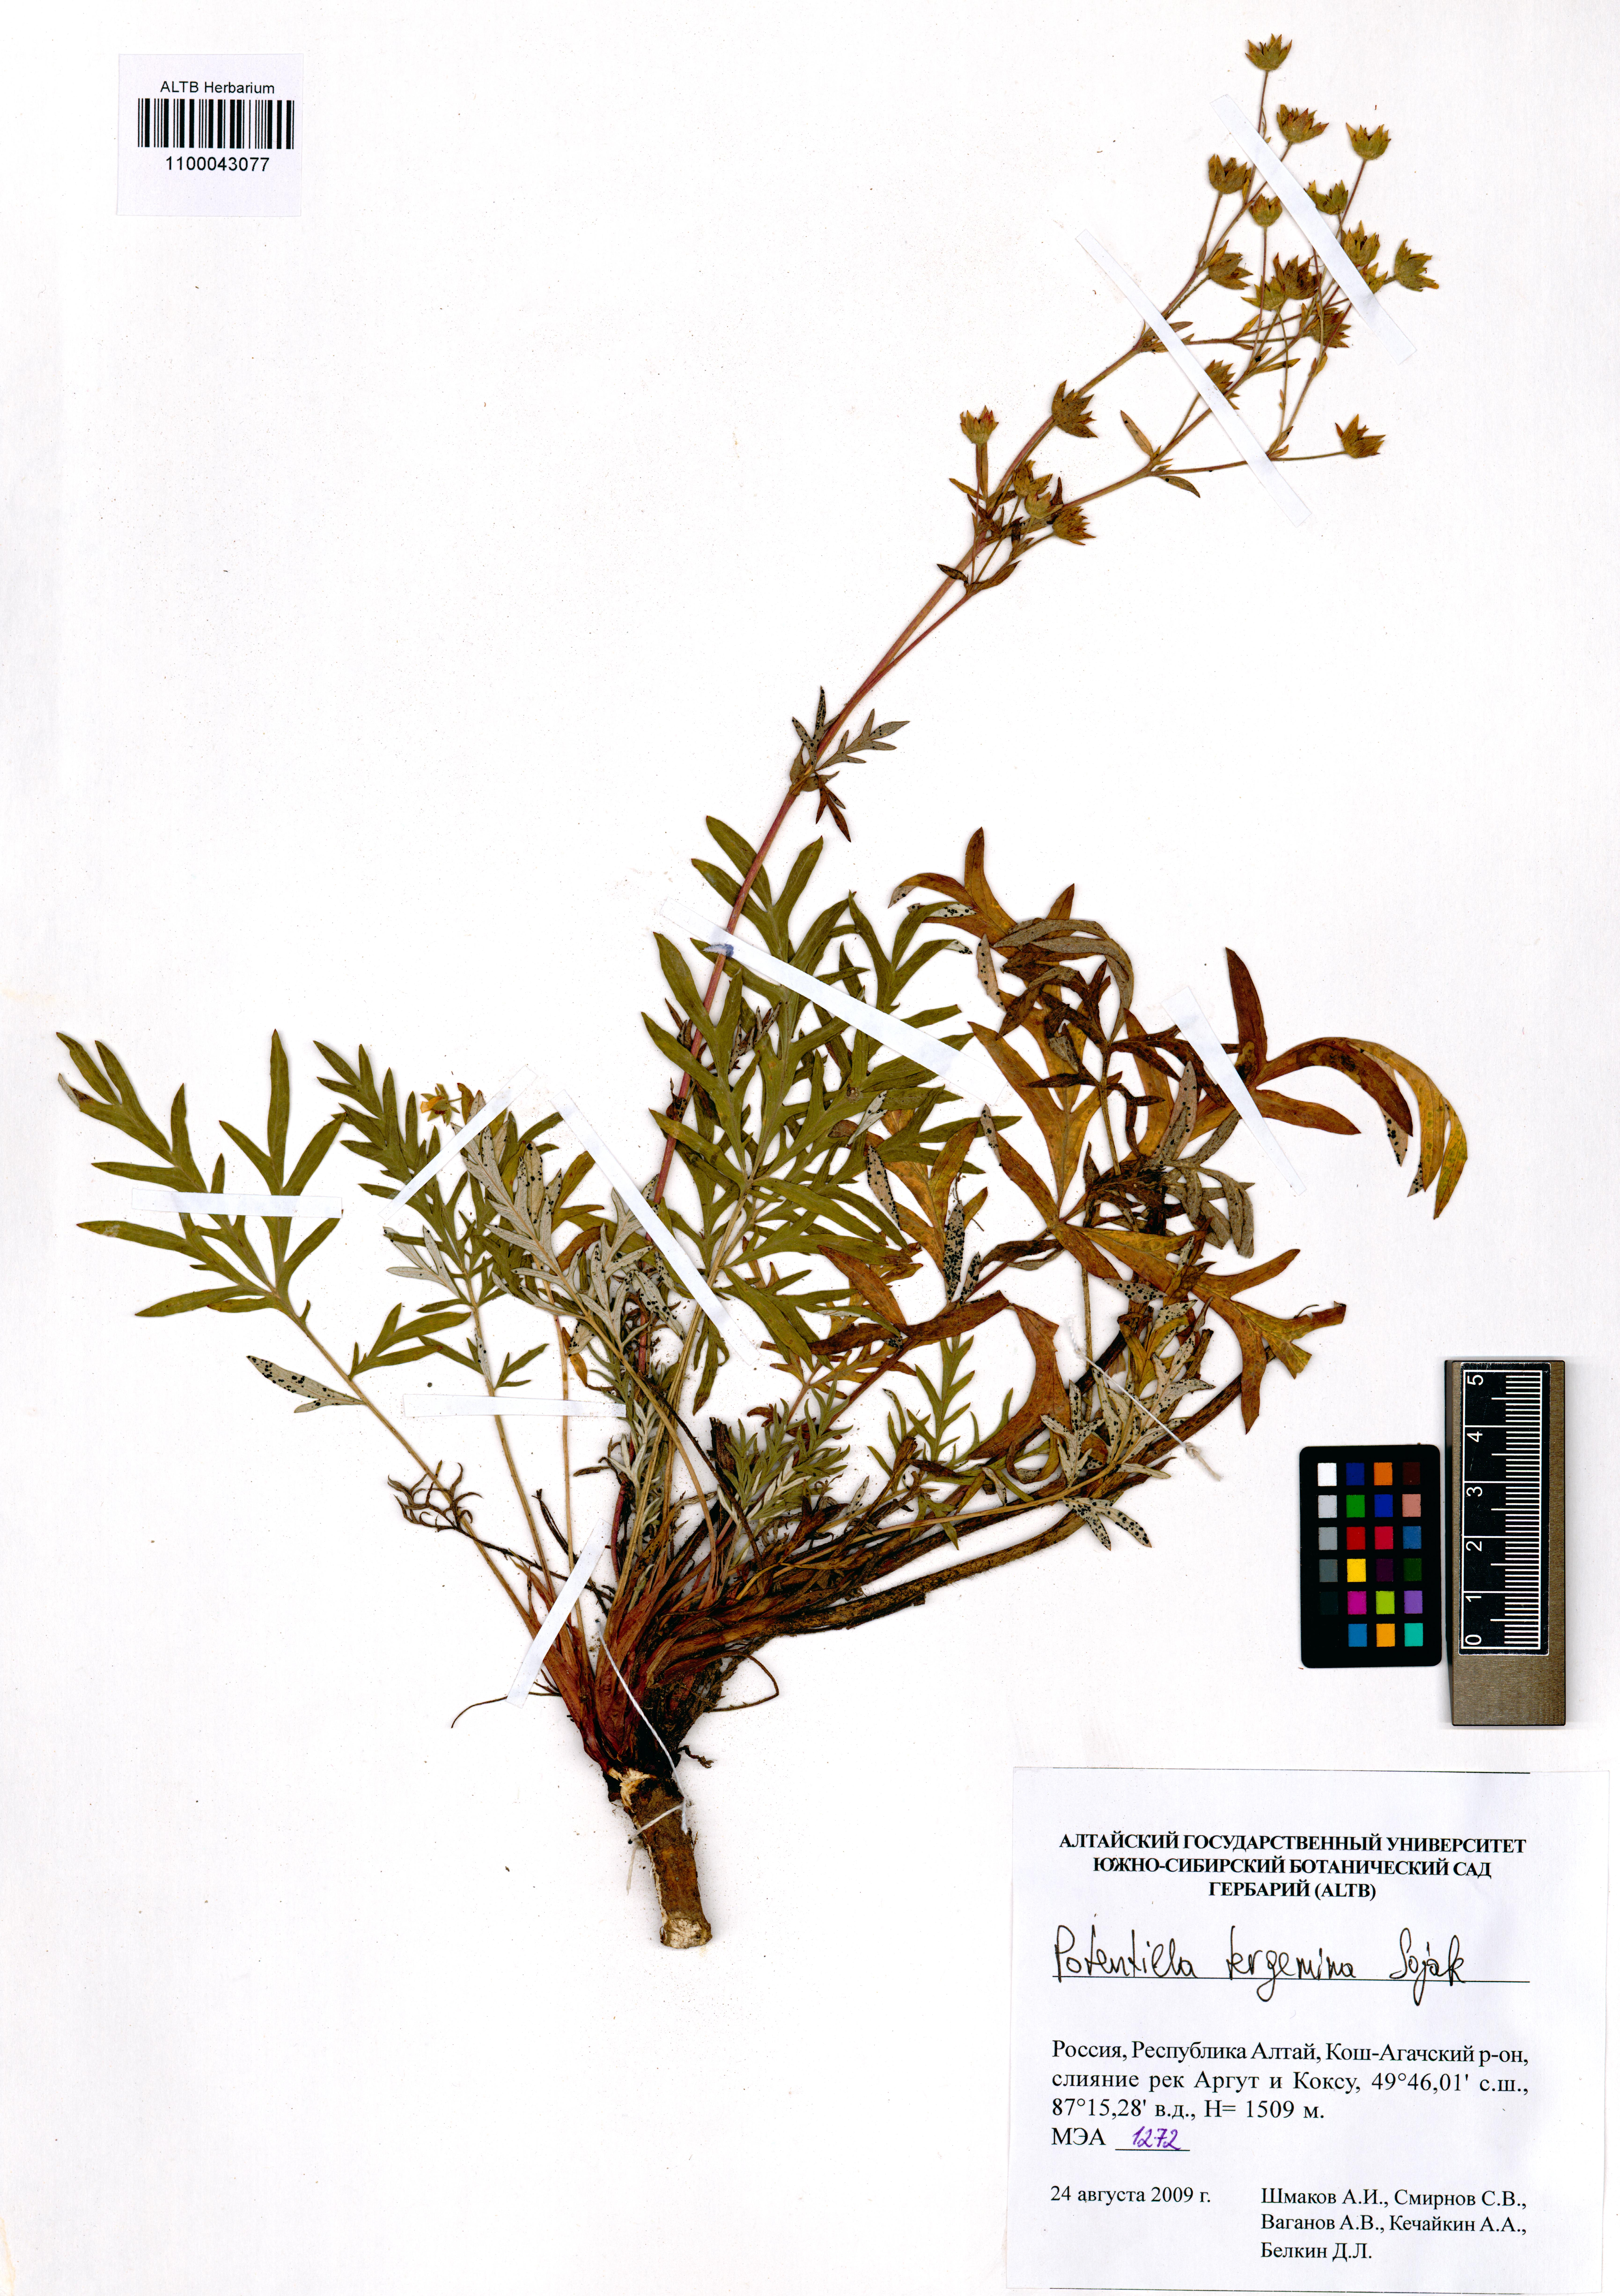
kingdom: Plantae
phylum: Tracheophyta
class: Magnoliopsida
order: Rosales
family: Rosaceae
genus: Potentilla
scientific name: Potentilla tergemina
